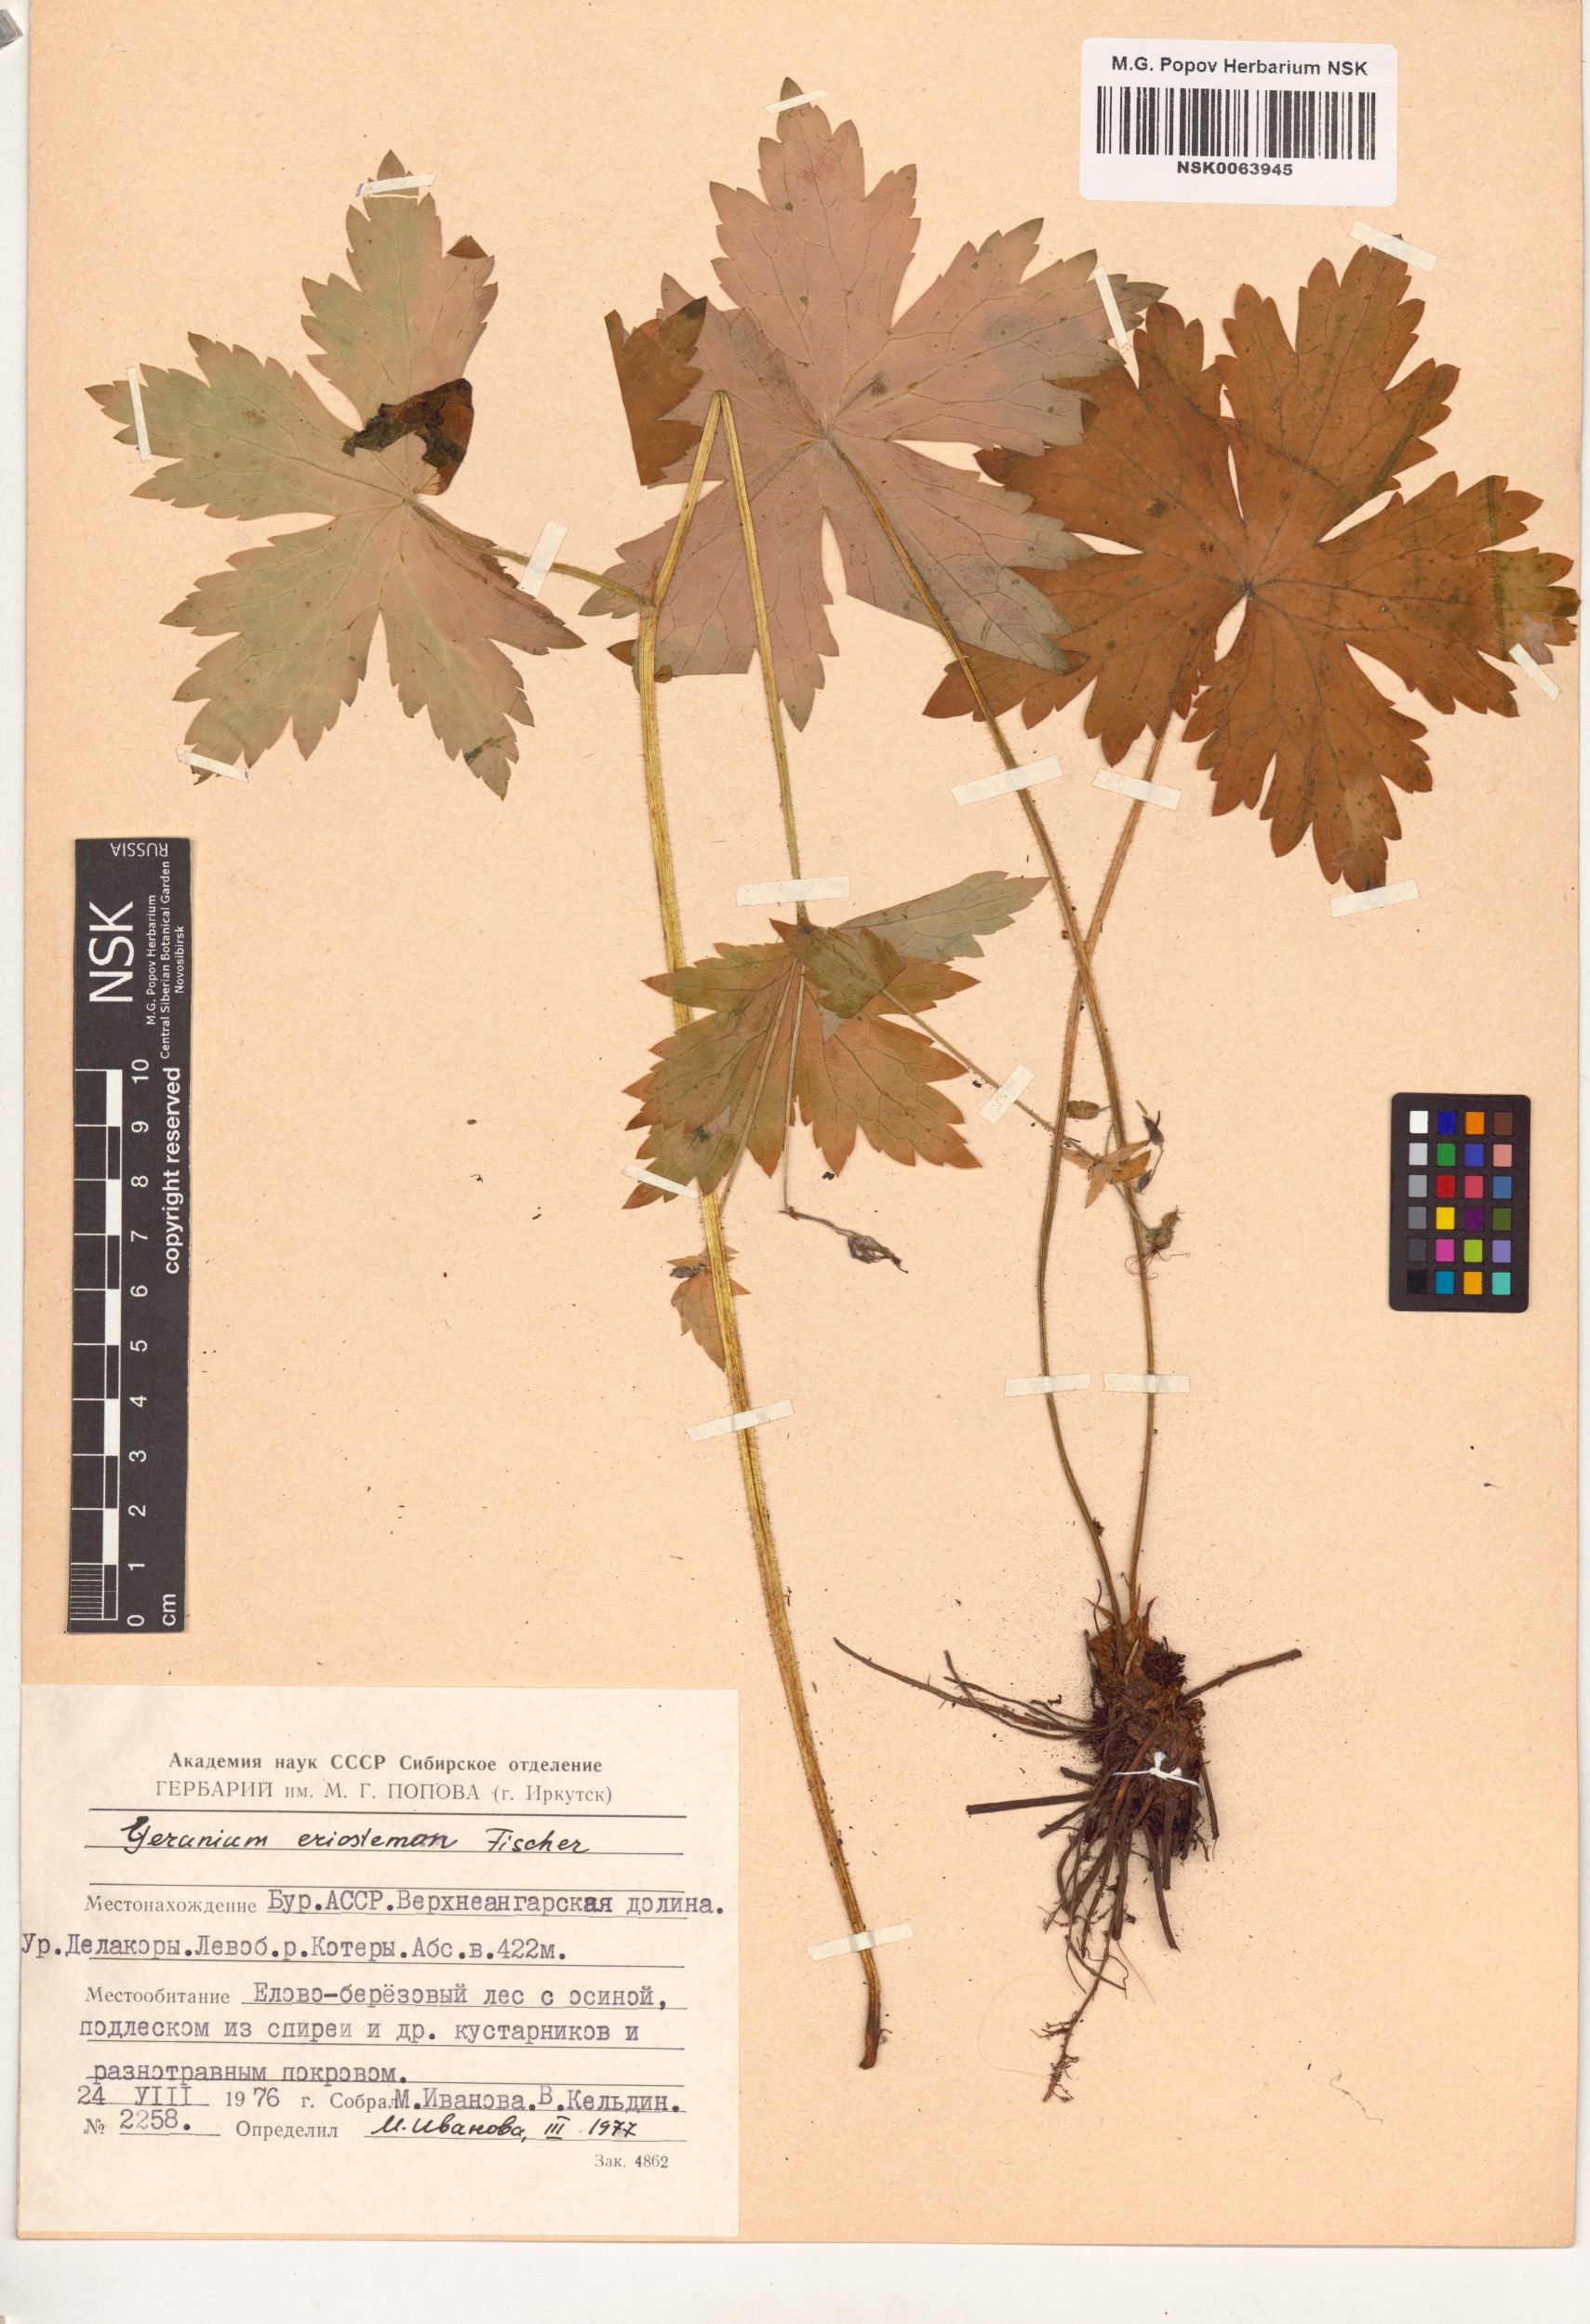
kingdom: Plantae
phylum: Tracheophyta
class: Magnoliopsida
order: Geraniales
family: Geraniaceae
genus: Geranium
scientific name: Geranium platyanthum
